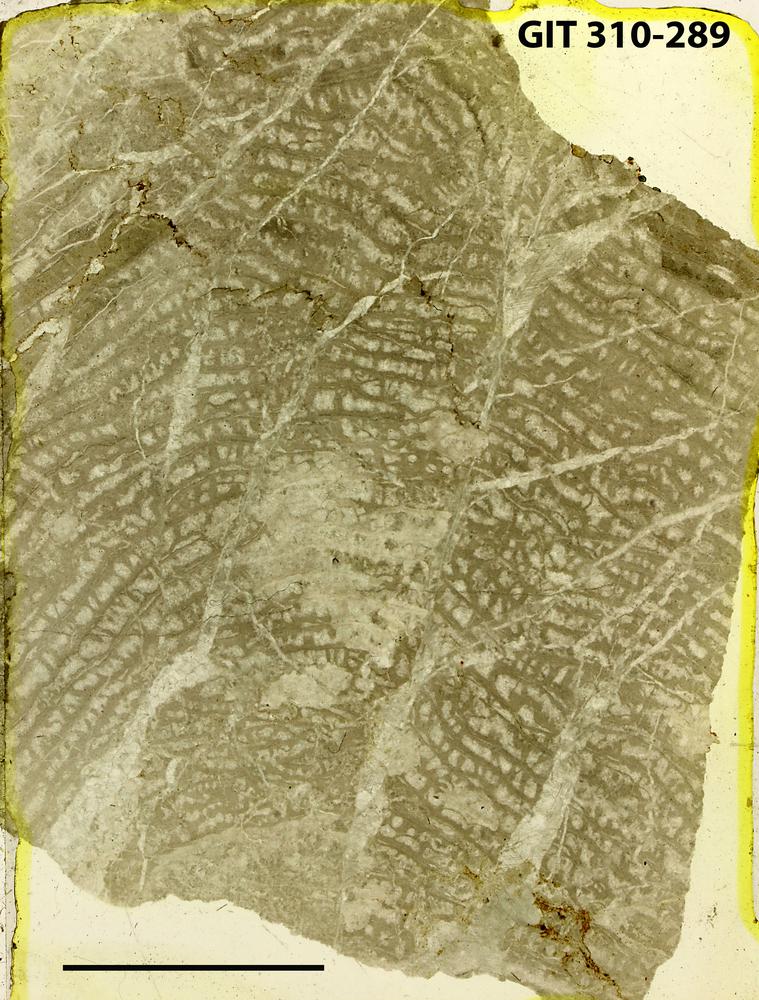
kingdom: Animalia
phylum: Porifera
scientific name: Porifera
